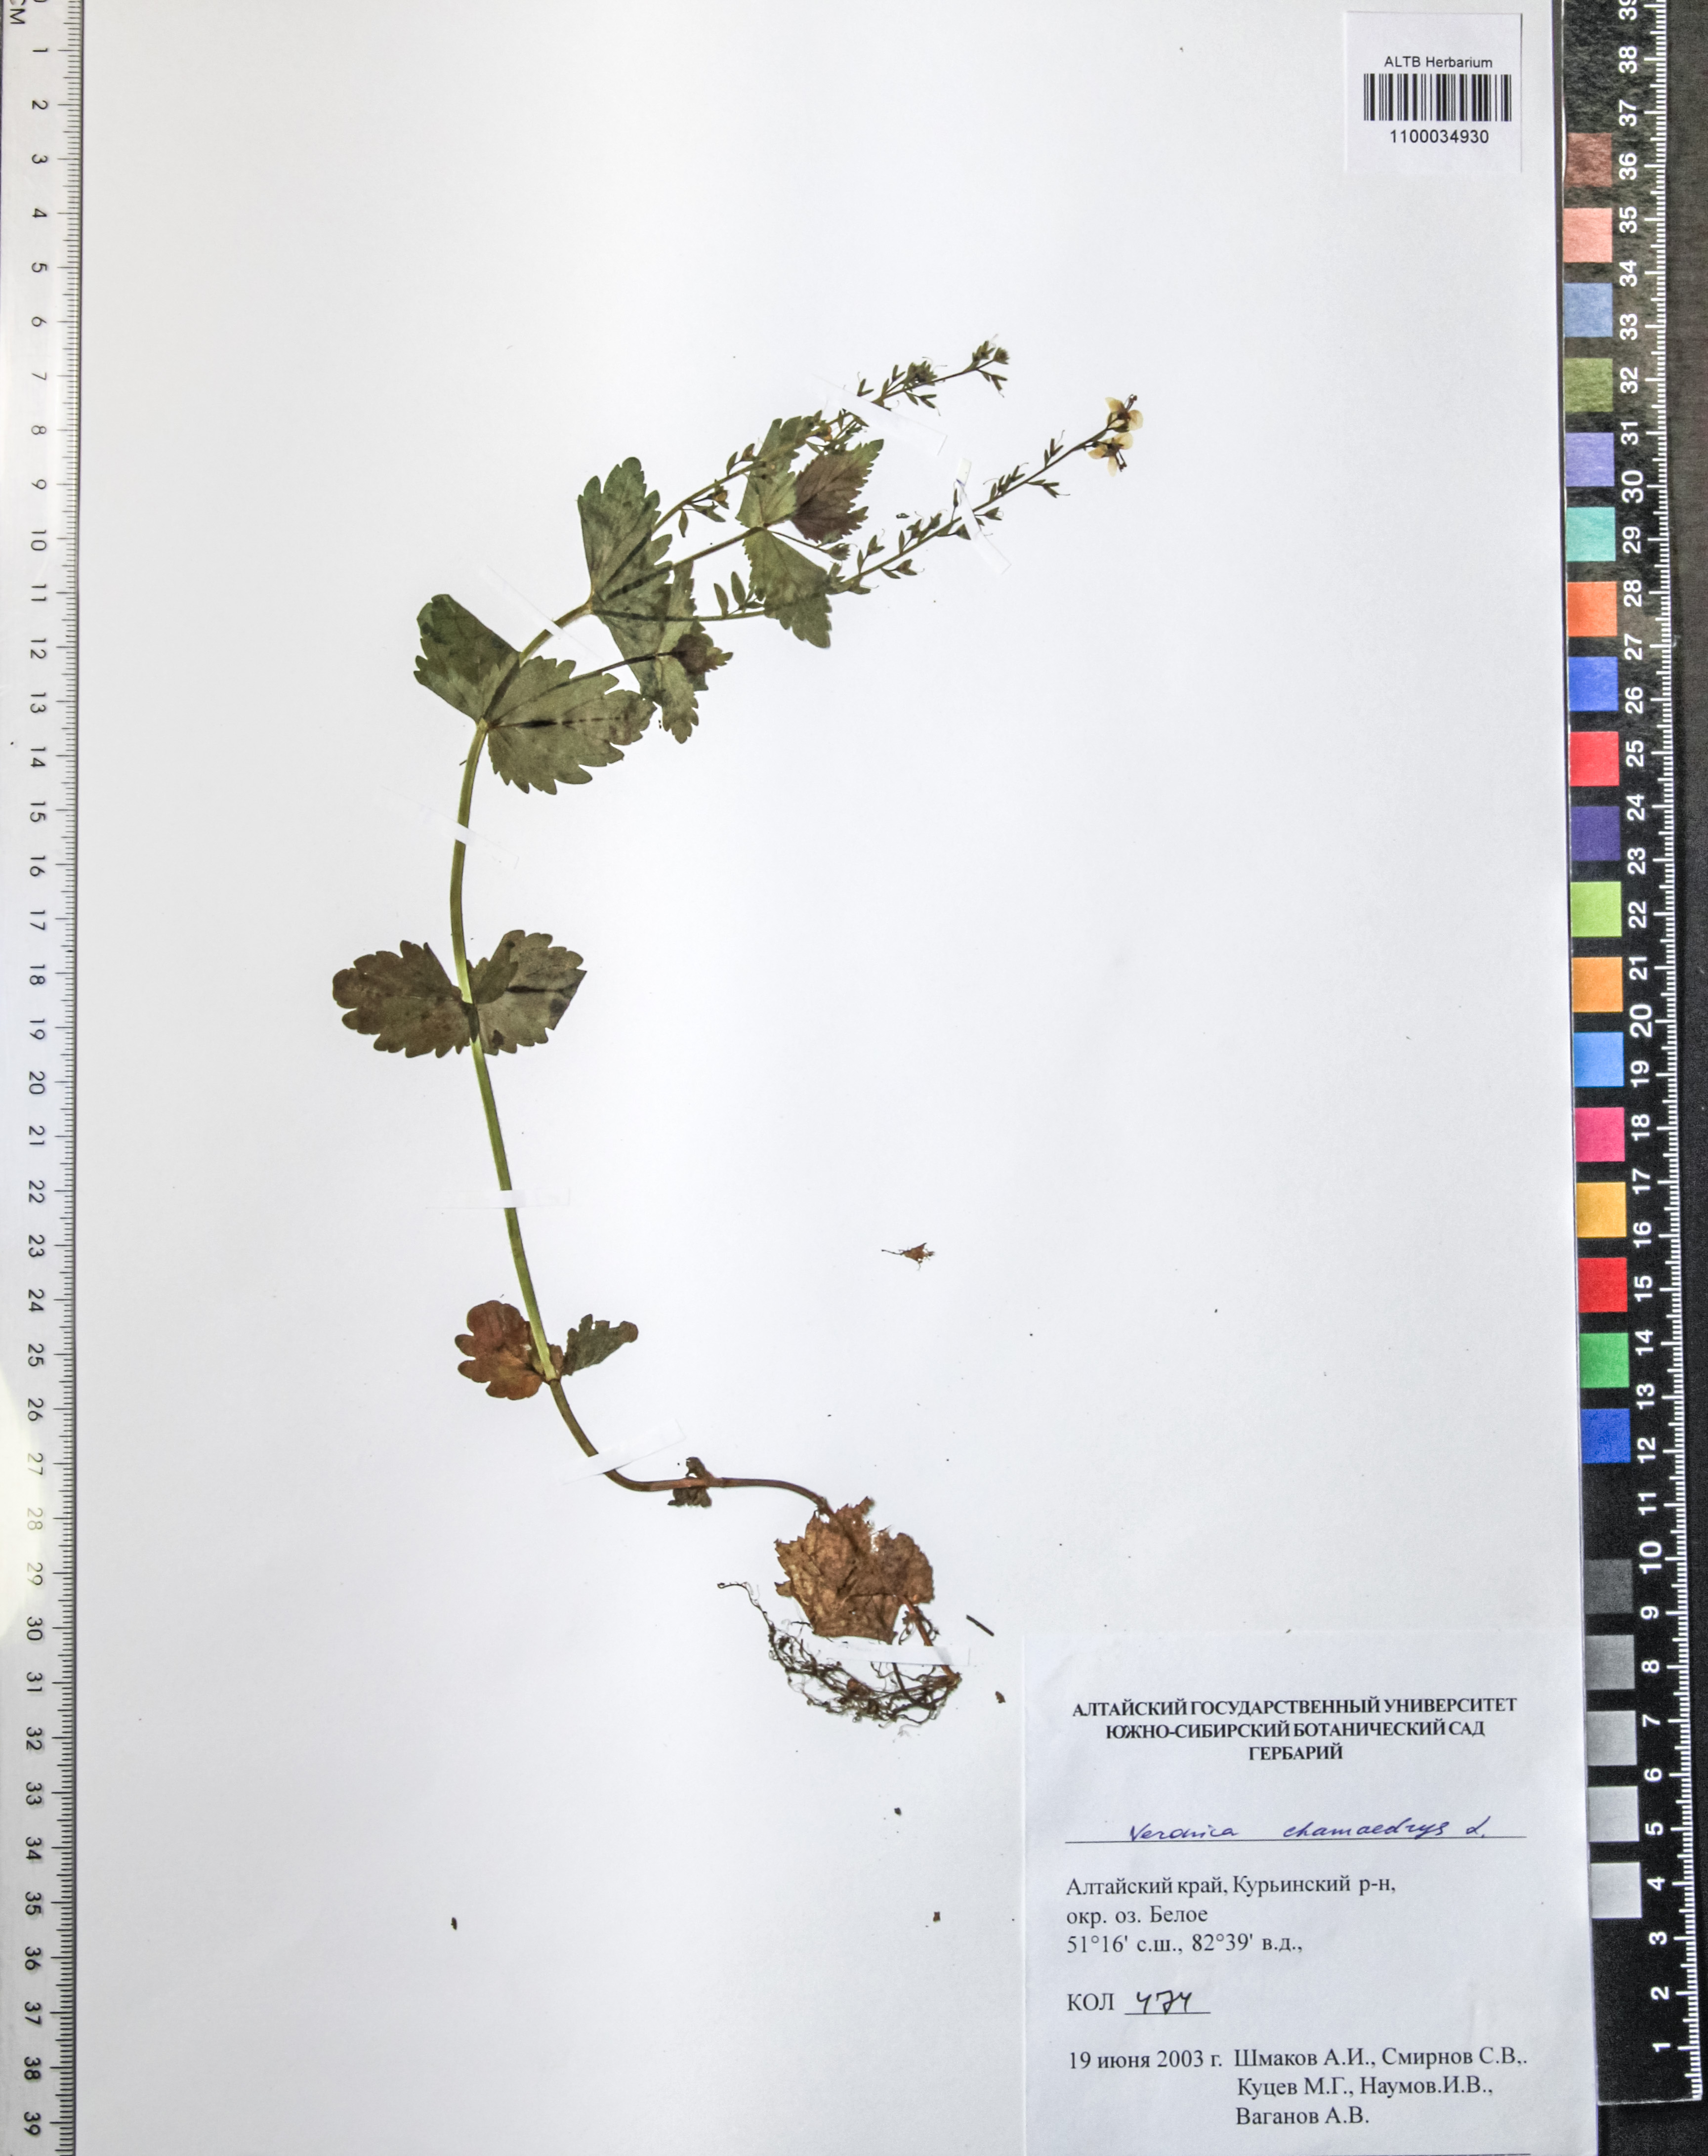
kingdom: Plantae
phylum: Tracheophyta
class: Magnoliopsida
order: Lamiales
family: Plantaginaceae
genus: Veronica
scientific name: Veronica chamaedrys
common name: Germander speedwell
